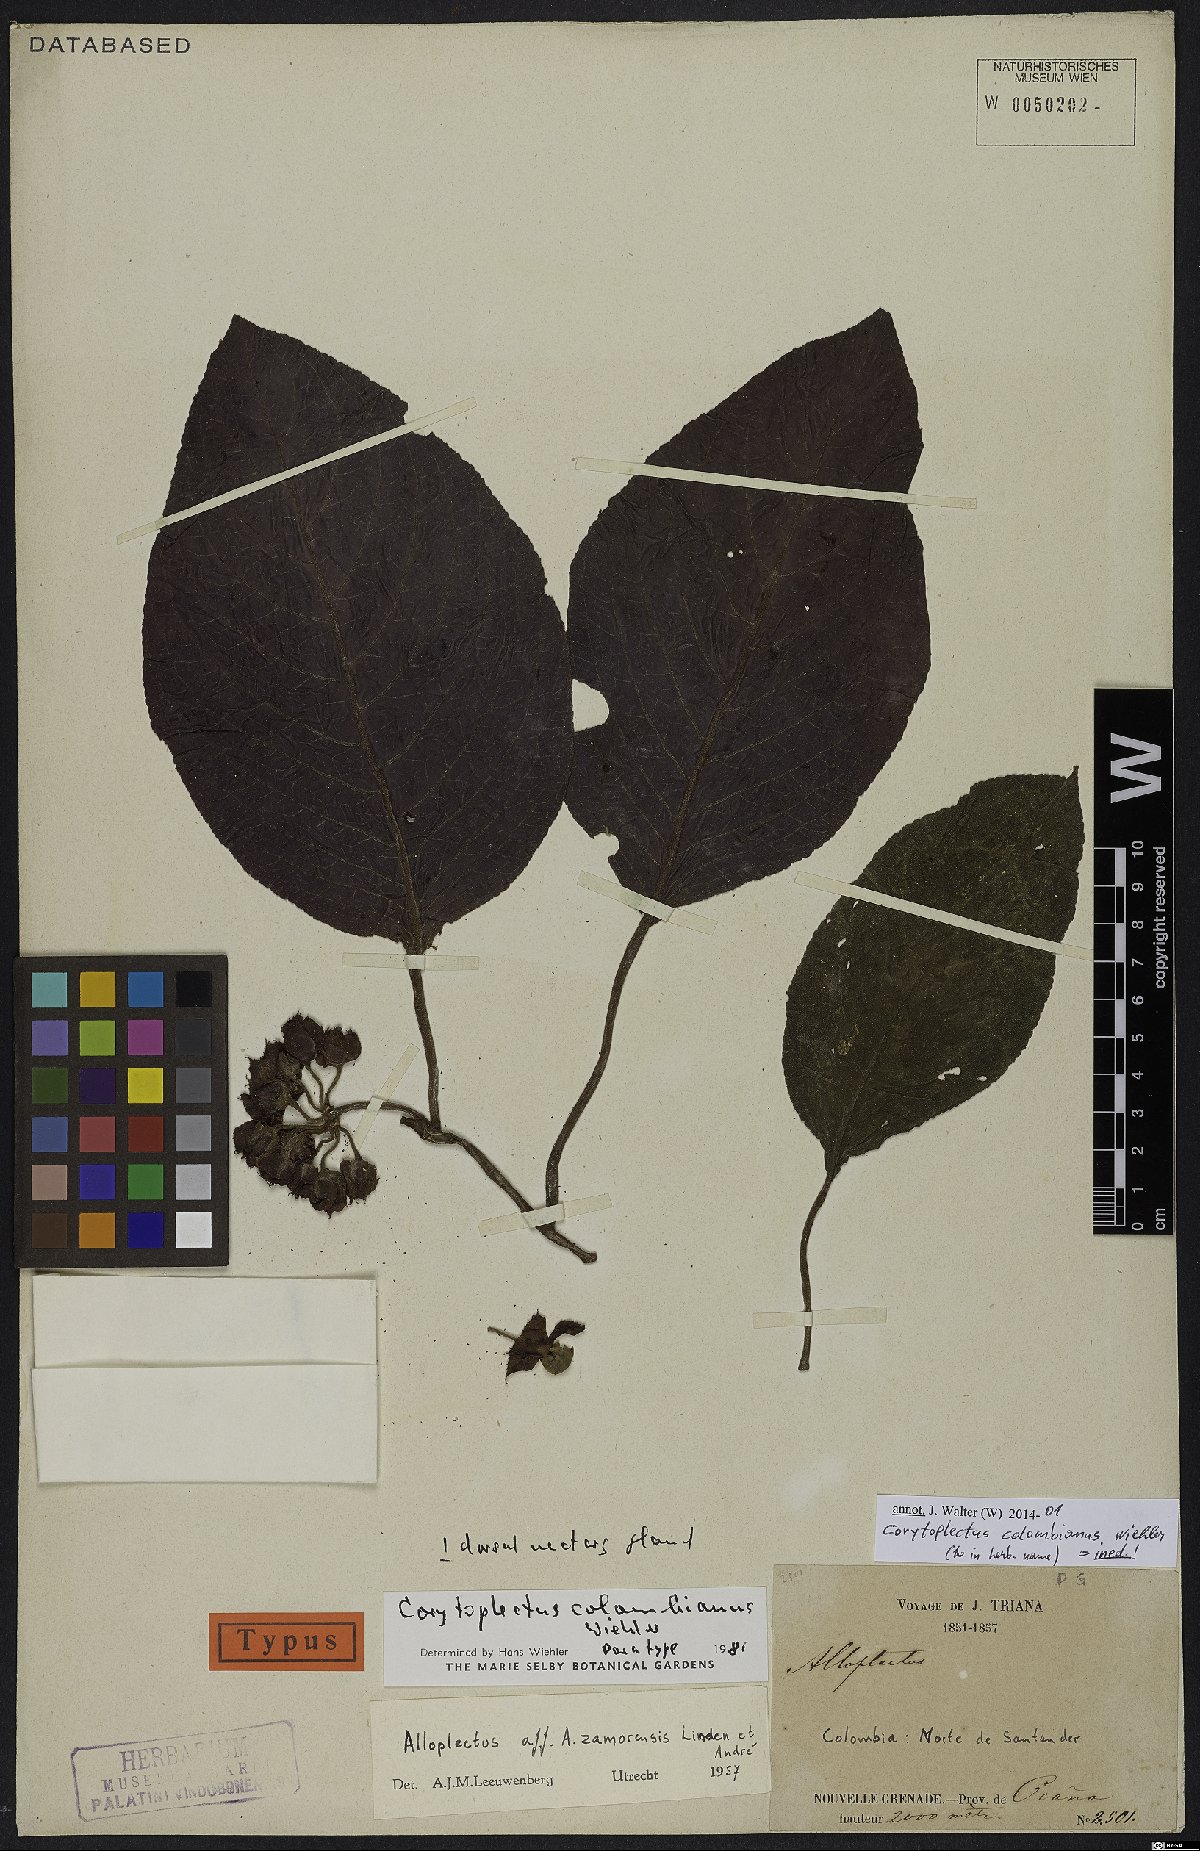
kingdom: Plantae
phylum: Tracheophyta
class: Magnoliopsida
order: Lamiales
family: Gesneriaceae
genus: Corytoplectus
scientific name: Corytoplectus
